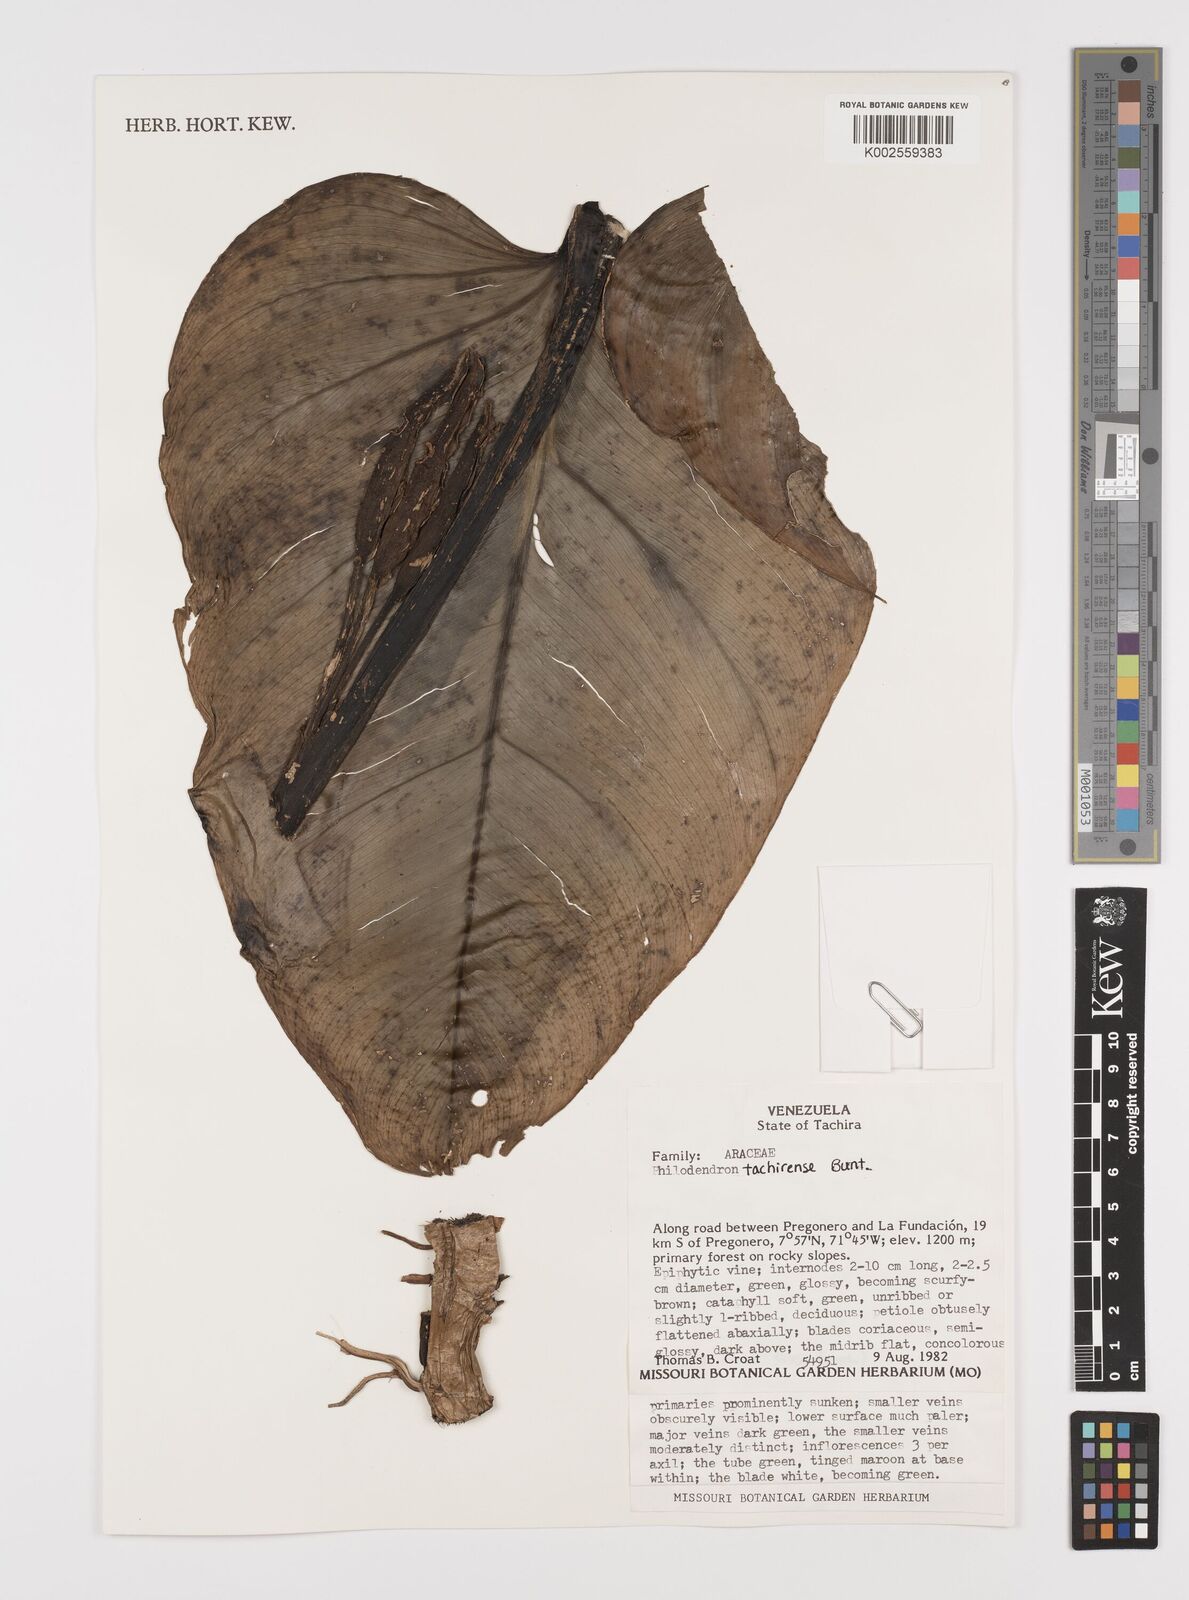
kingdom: Plantae
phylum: Tracheophyta
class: Liliopsida
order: Alismatales
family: Araceae
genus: Philodendron
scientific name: Philodendron tachirense
